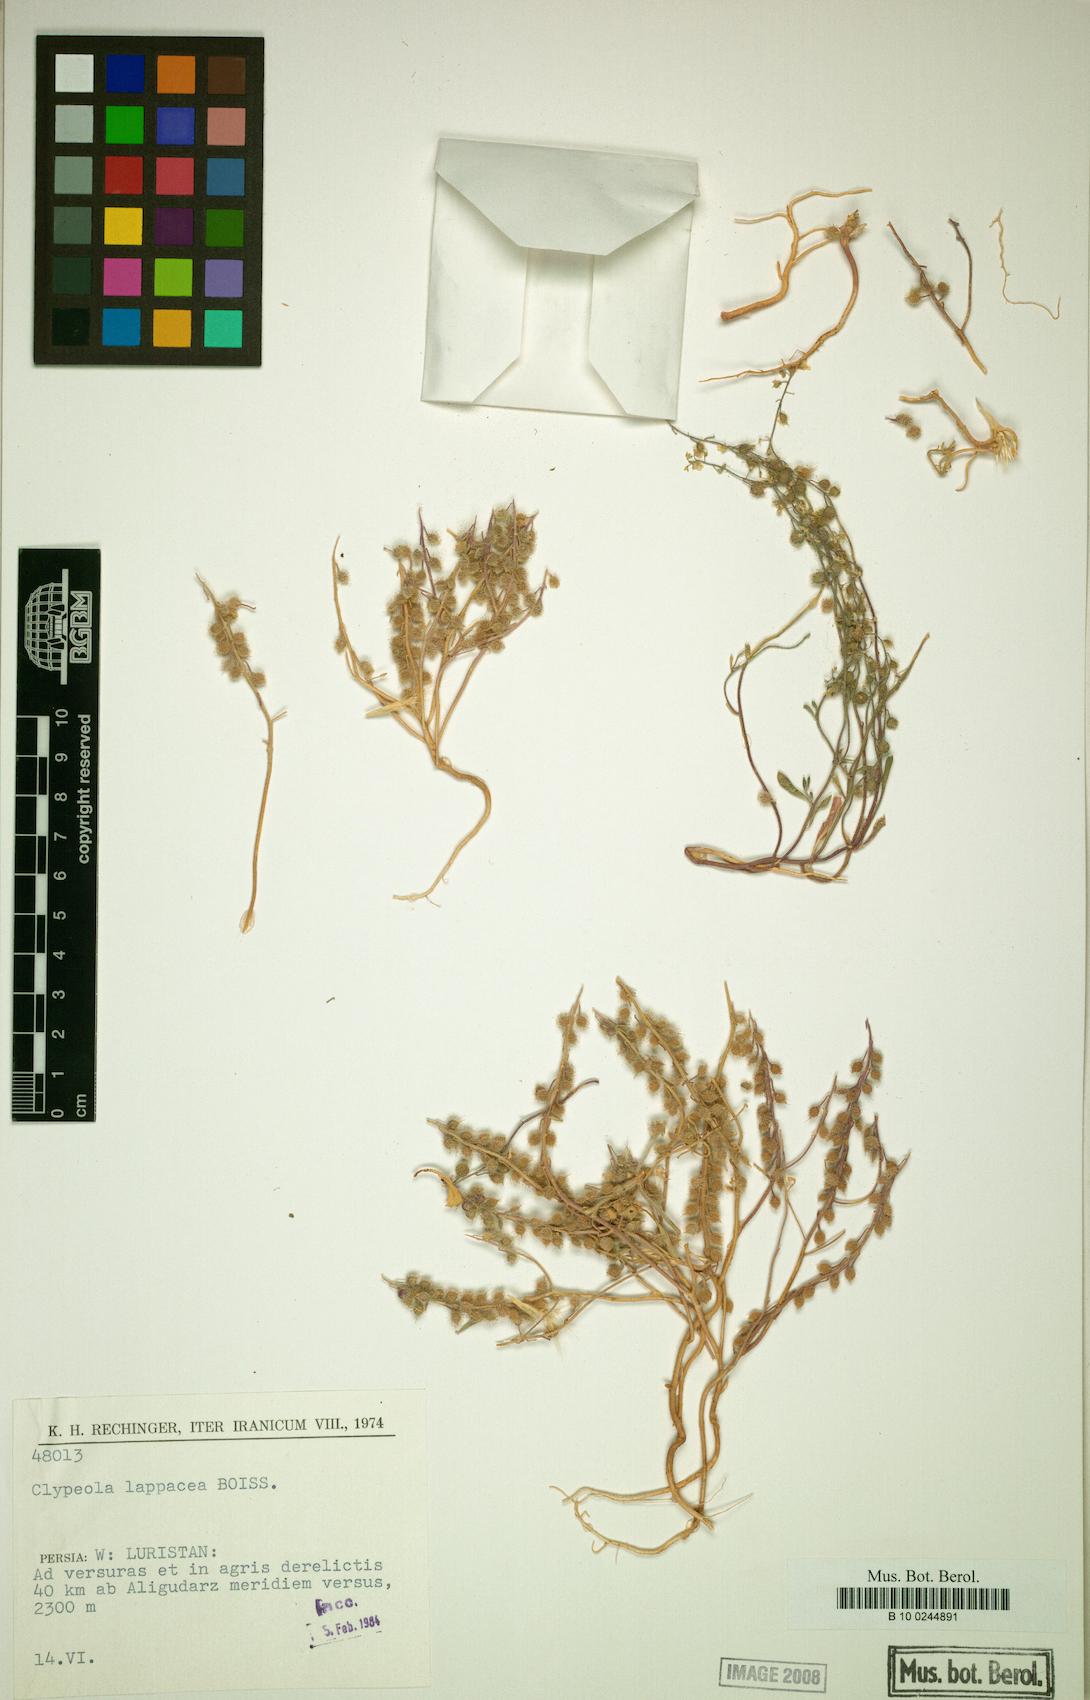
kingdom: Plantae
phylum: Tracheophyta
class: Magnoliopsida
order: Brassicales
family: Brassicaceae
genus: Clypeola
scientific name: Clypeola lappacea
